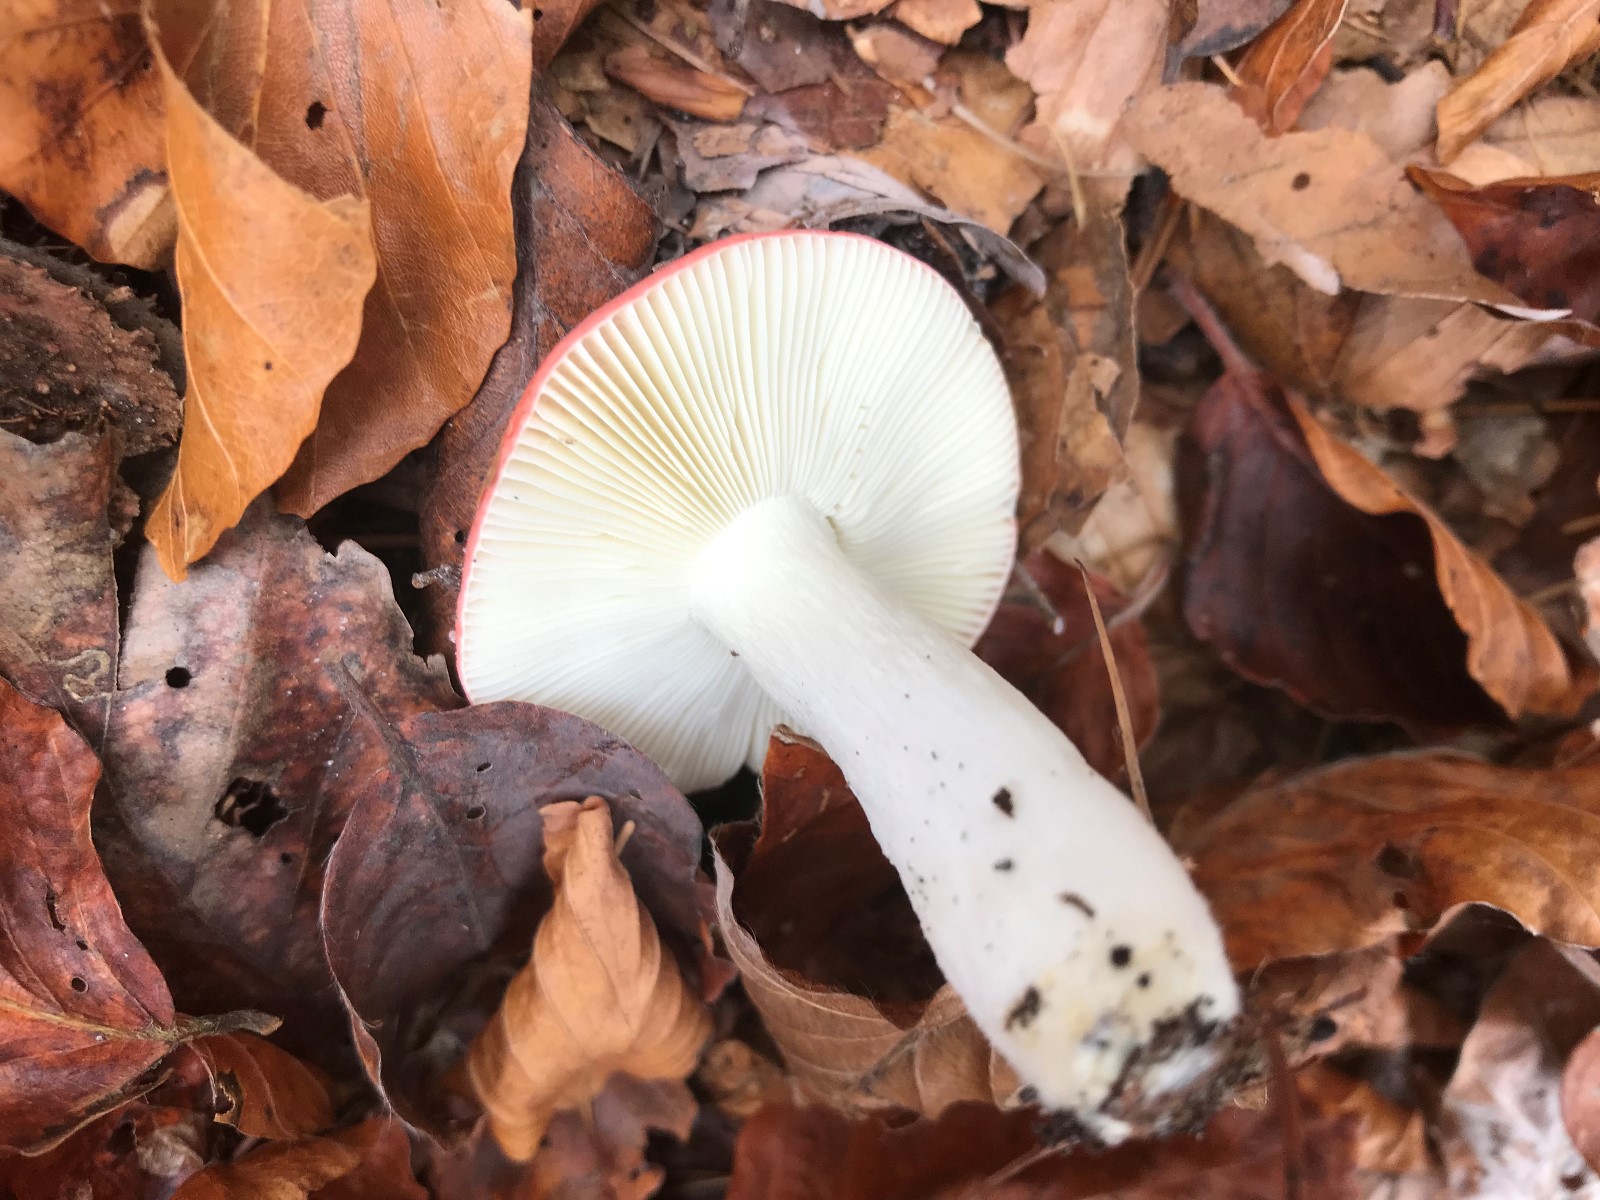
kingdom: Fungi
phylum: Basidiomycota
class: Agaricomycetes
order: Russulales
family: Russulaceae
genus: Russula
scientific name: Russula nobilis
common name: lille gift-skørhat
